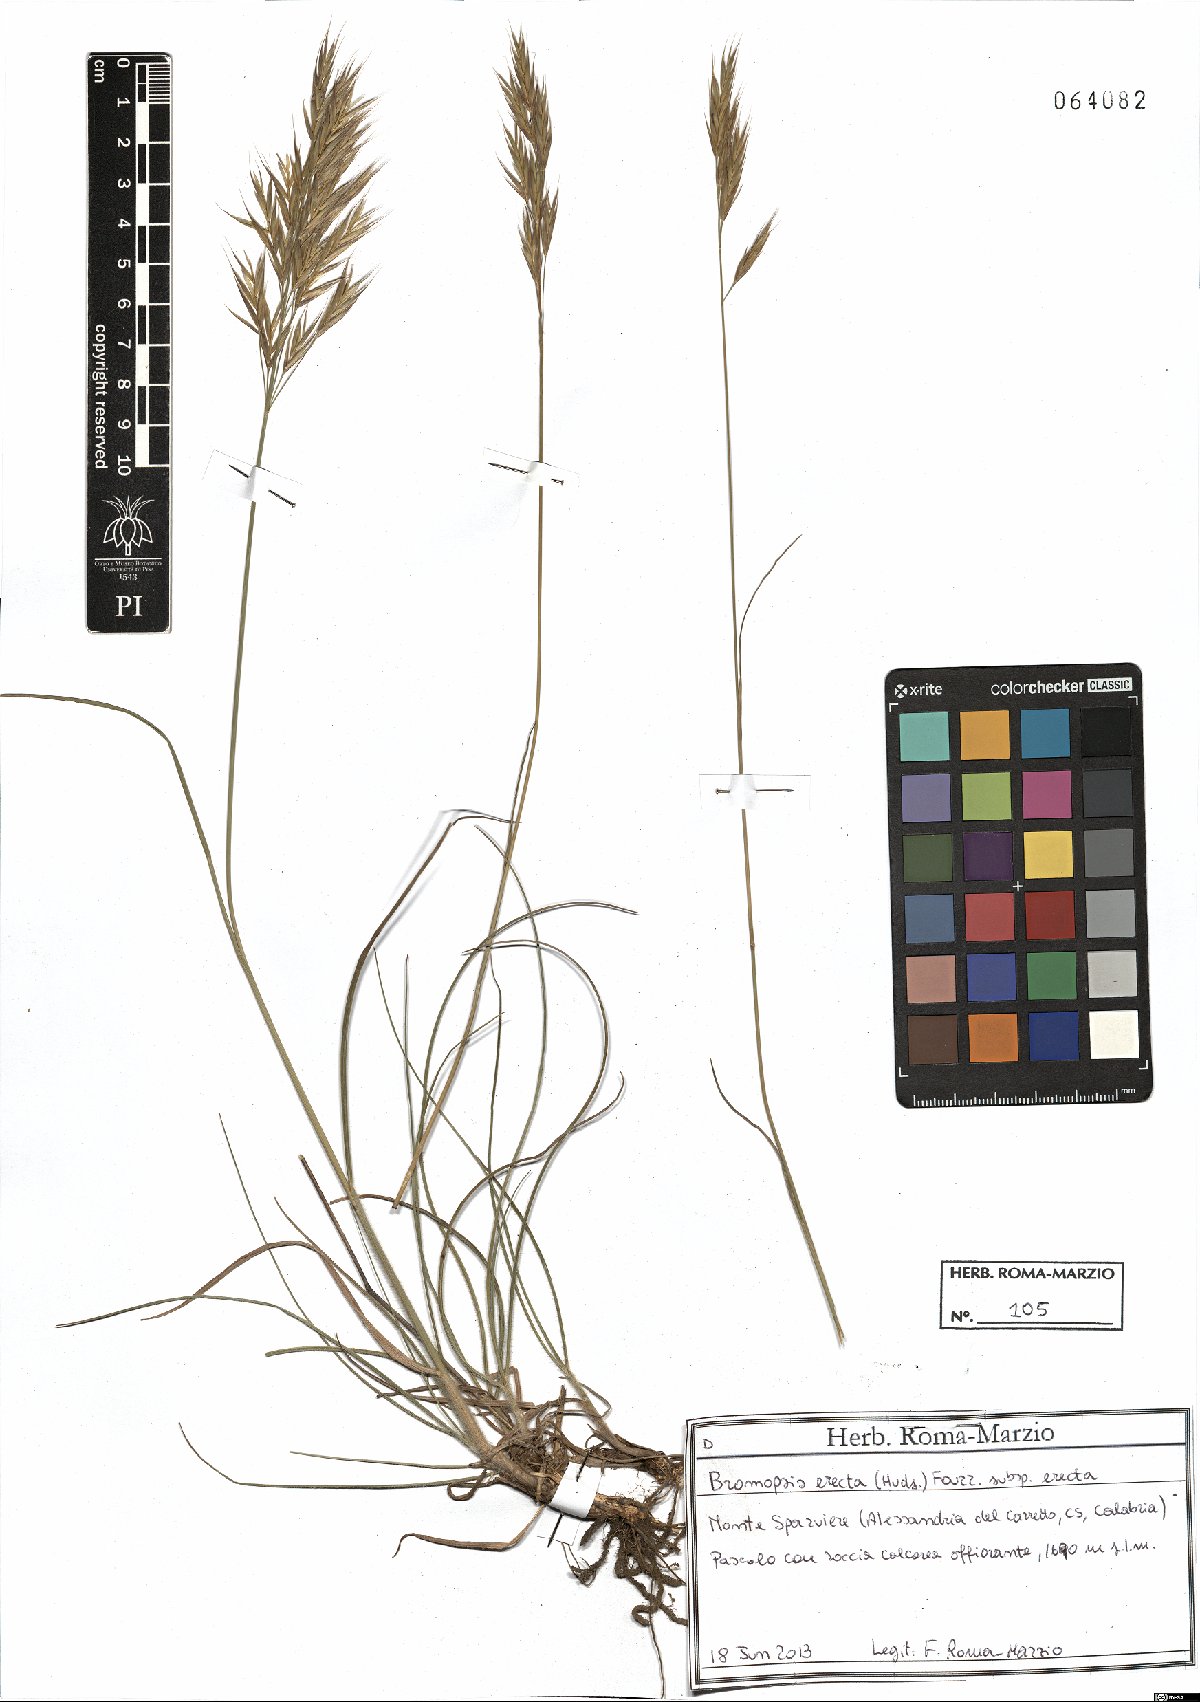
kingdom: Plantae
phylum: Tracheophyta
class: Liliopsida
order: Poales
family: Poaceae
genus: Bromus
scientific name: Bromus erectus
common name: Erect brome
